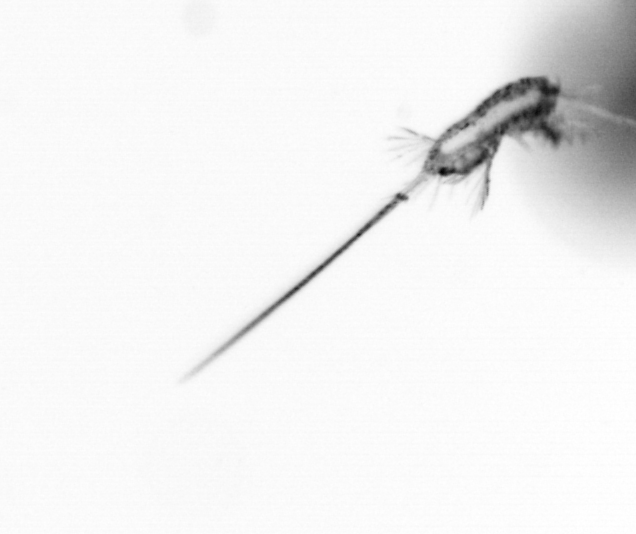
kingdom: Animalia
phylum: Arthropoda
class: Copepoda
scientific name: Copepoda
